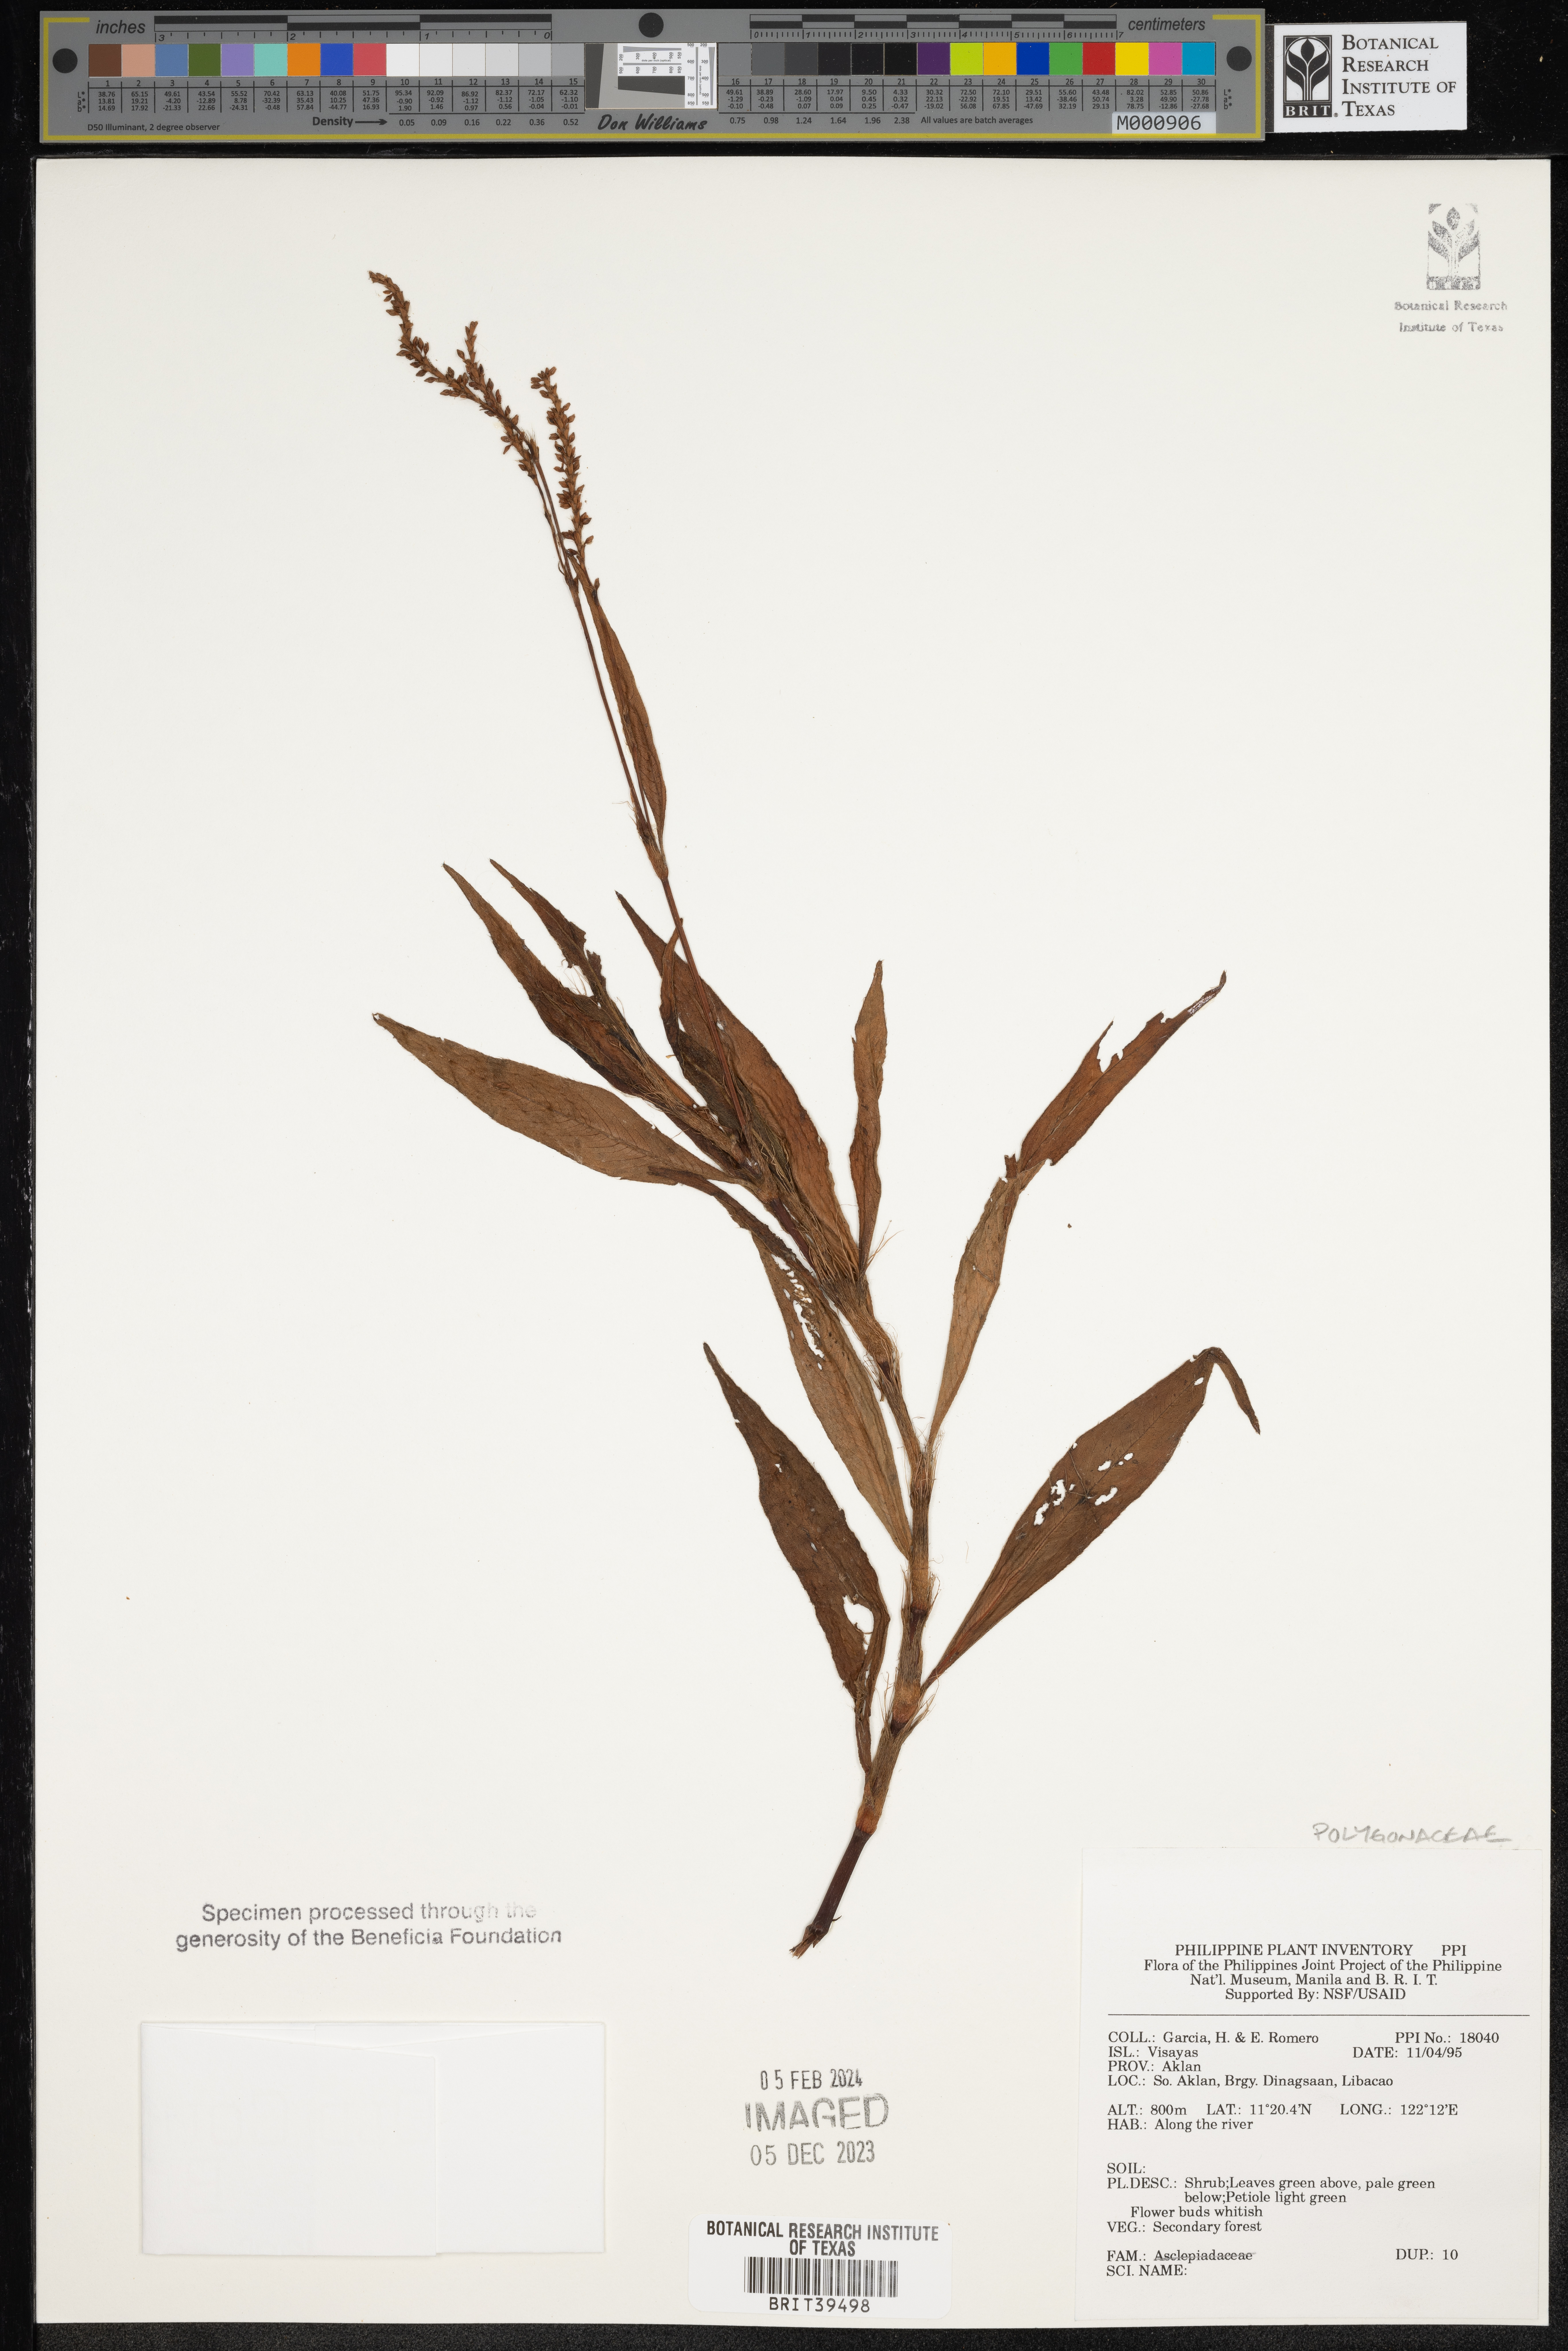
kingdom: Plantae
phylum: Tracheophyta
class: Magnoliopsida
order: Caryophyllales
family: Polygonaceae
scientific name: Polygonaceae
